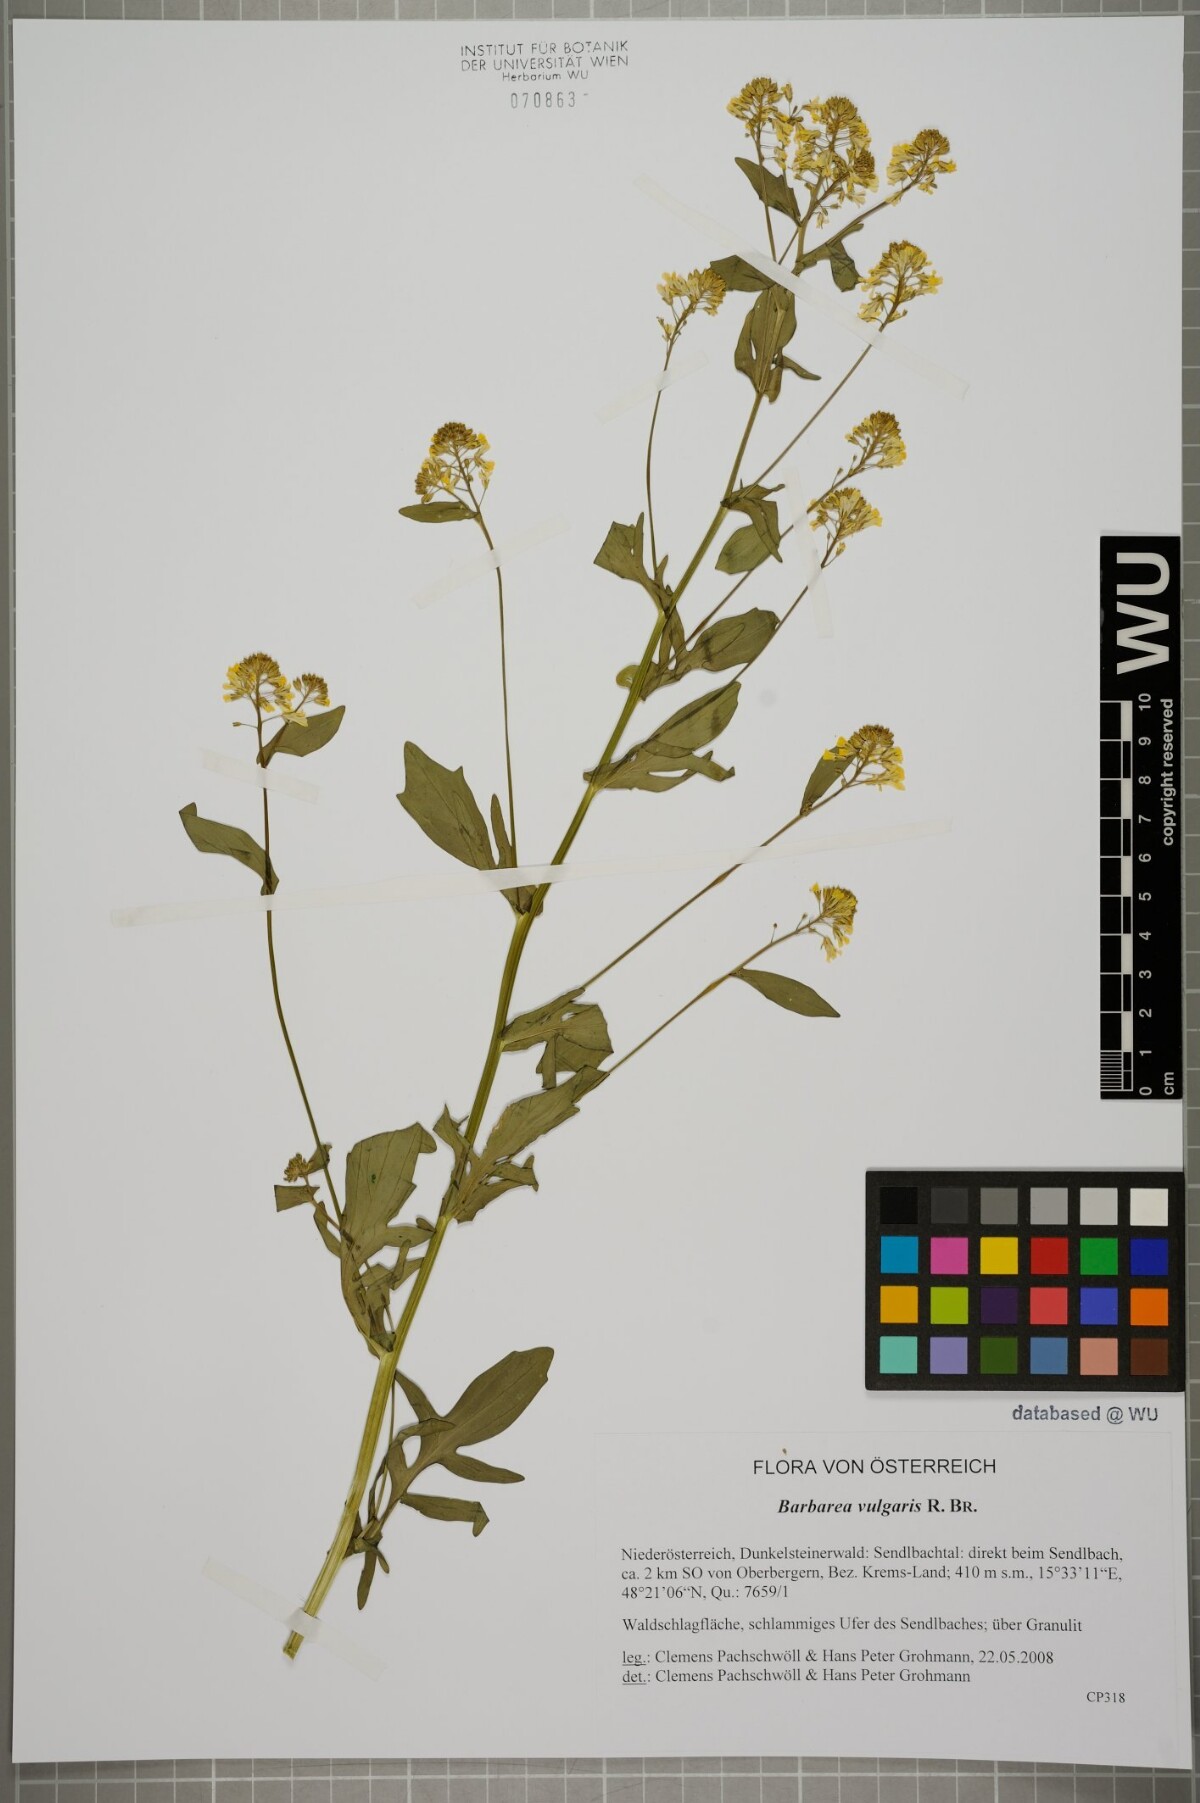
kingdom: Plantae
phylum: Tracheophyta
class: Magnoliopsida
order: Brassicales
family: Brassicaceae
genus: Barbarea
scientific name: Barbarea vulgaris
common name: Cressy-greens
